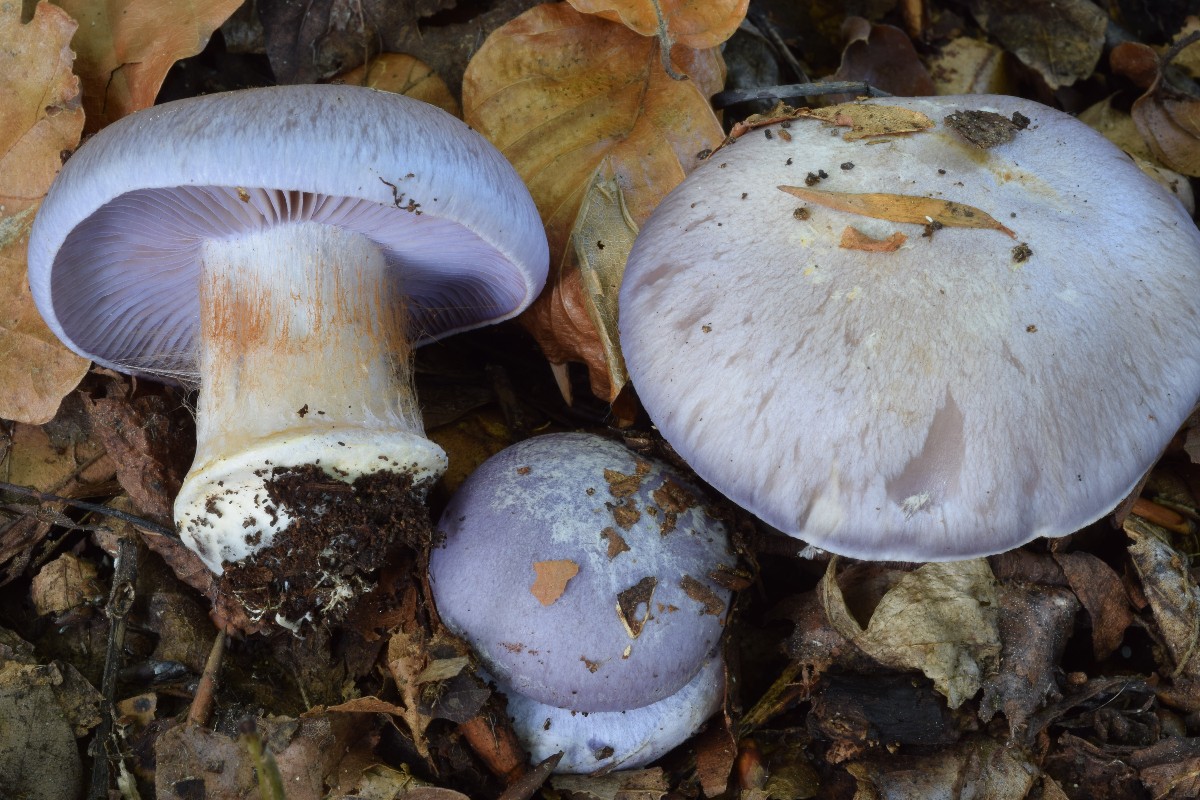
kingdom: Fungi
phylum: Basidiomycota
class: Agaricomycetes
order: Agaricales
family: Cortinariaceae
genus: Phlegmacium
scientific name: Phlegmacium eucaeruleum
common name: indigo-slørhat
